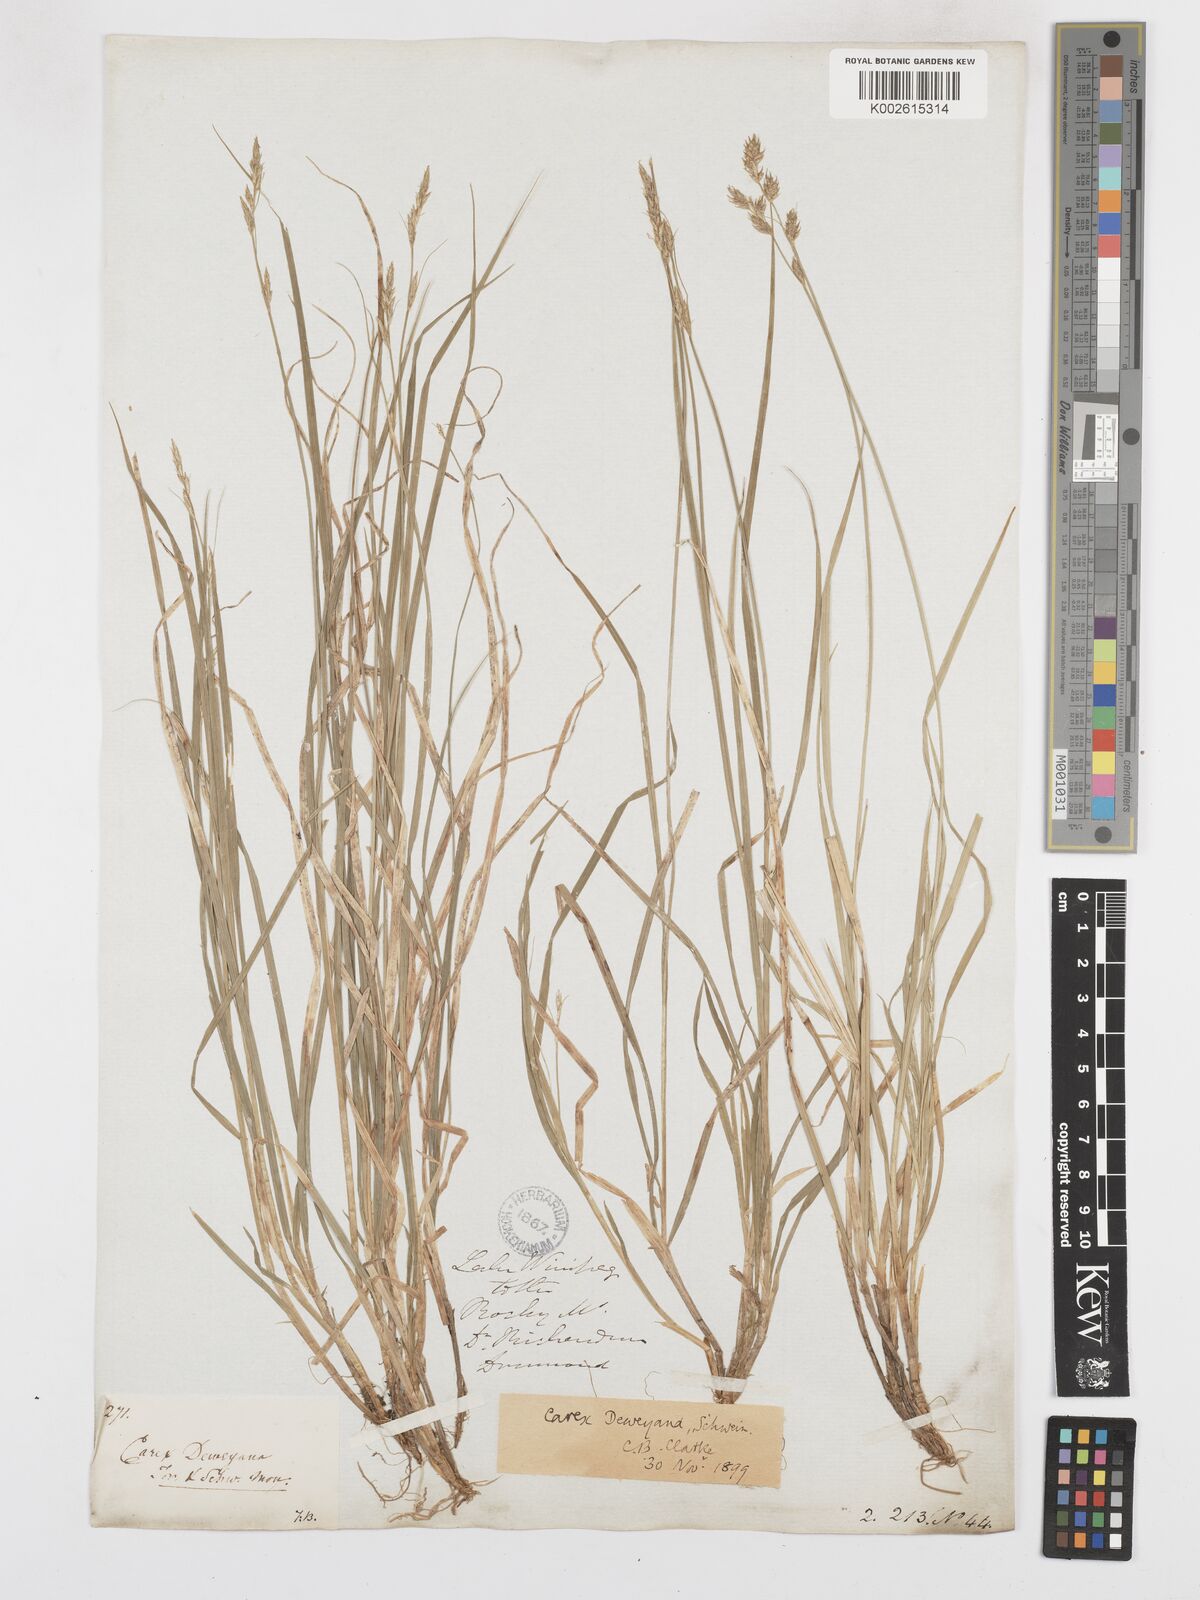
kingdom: Plantae
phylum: Tracheophyta
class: Liliopsida
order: Poales
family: Cyperaceae
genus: Carex
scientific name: Carex deweyana
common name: Dewey's sedge
